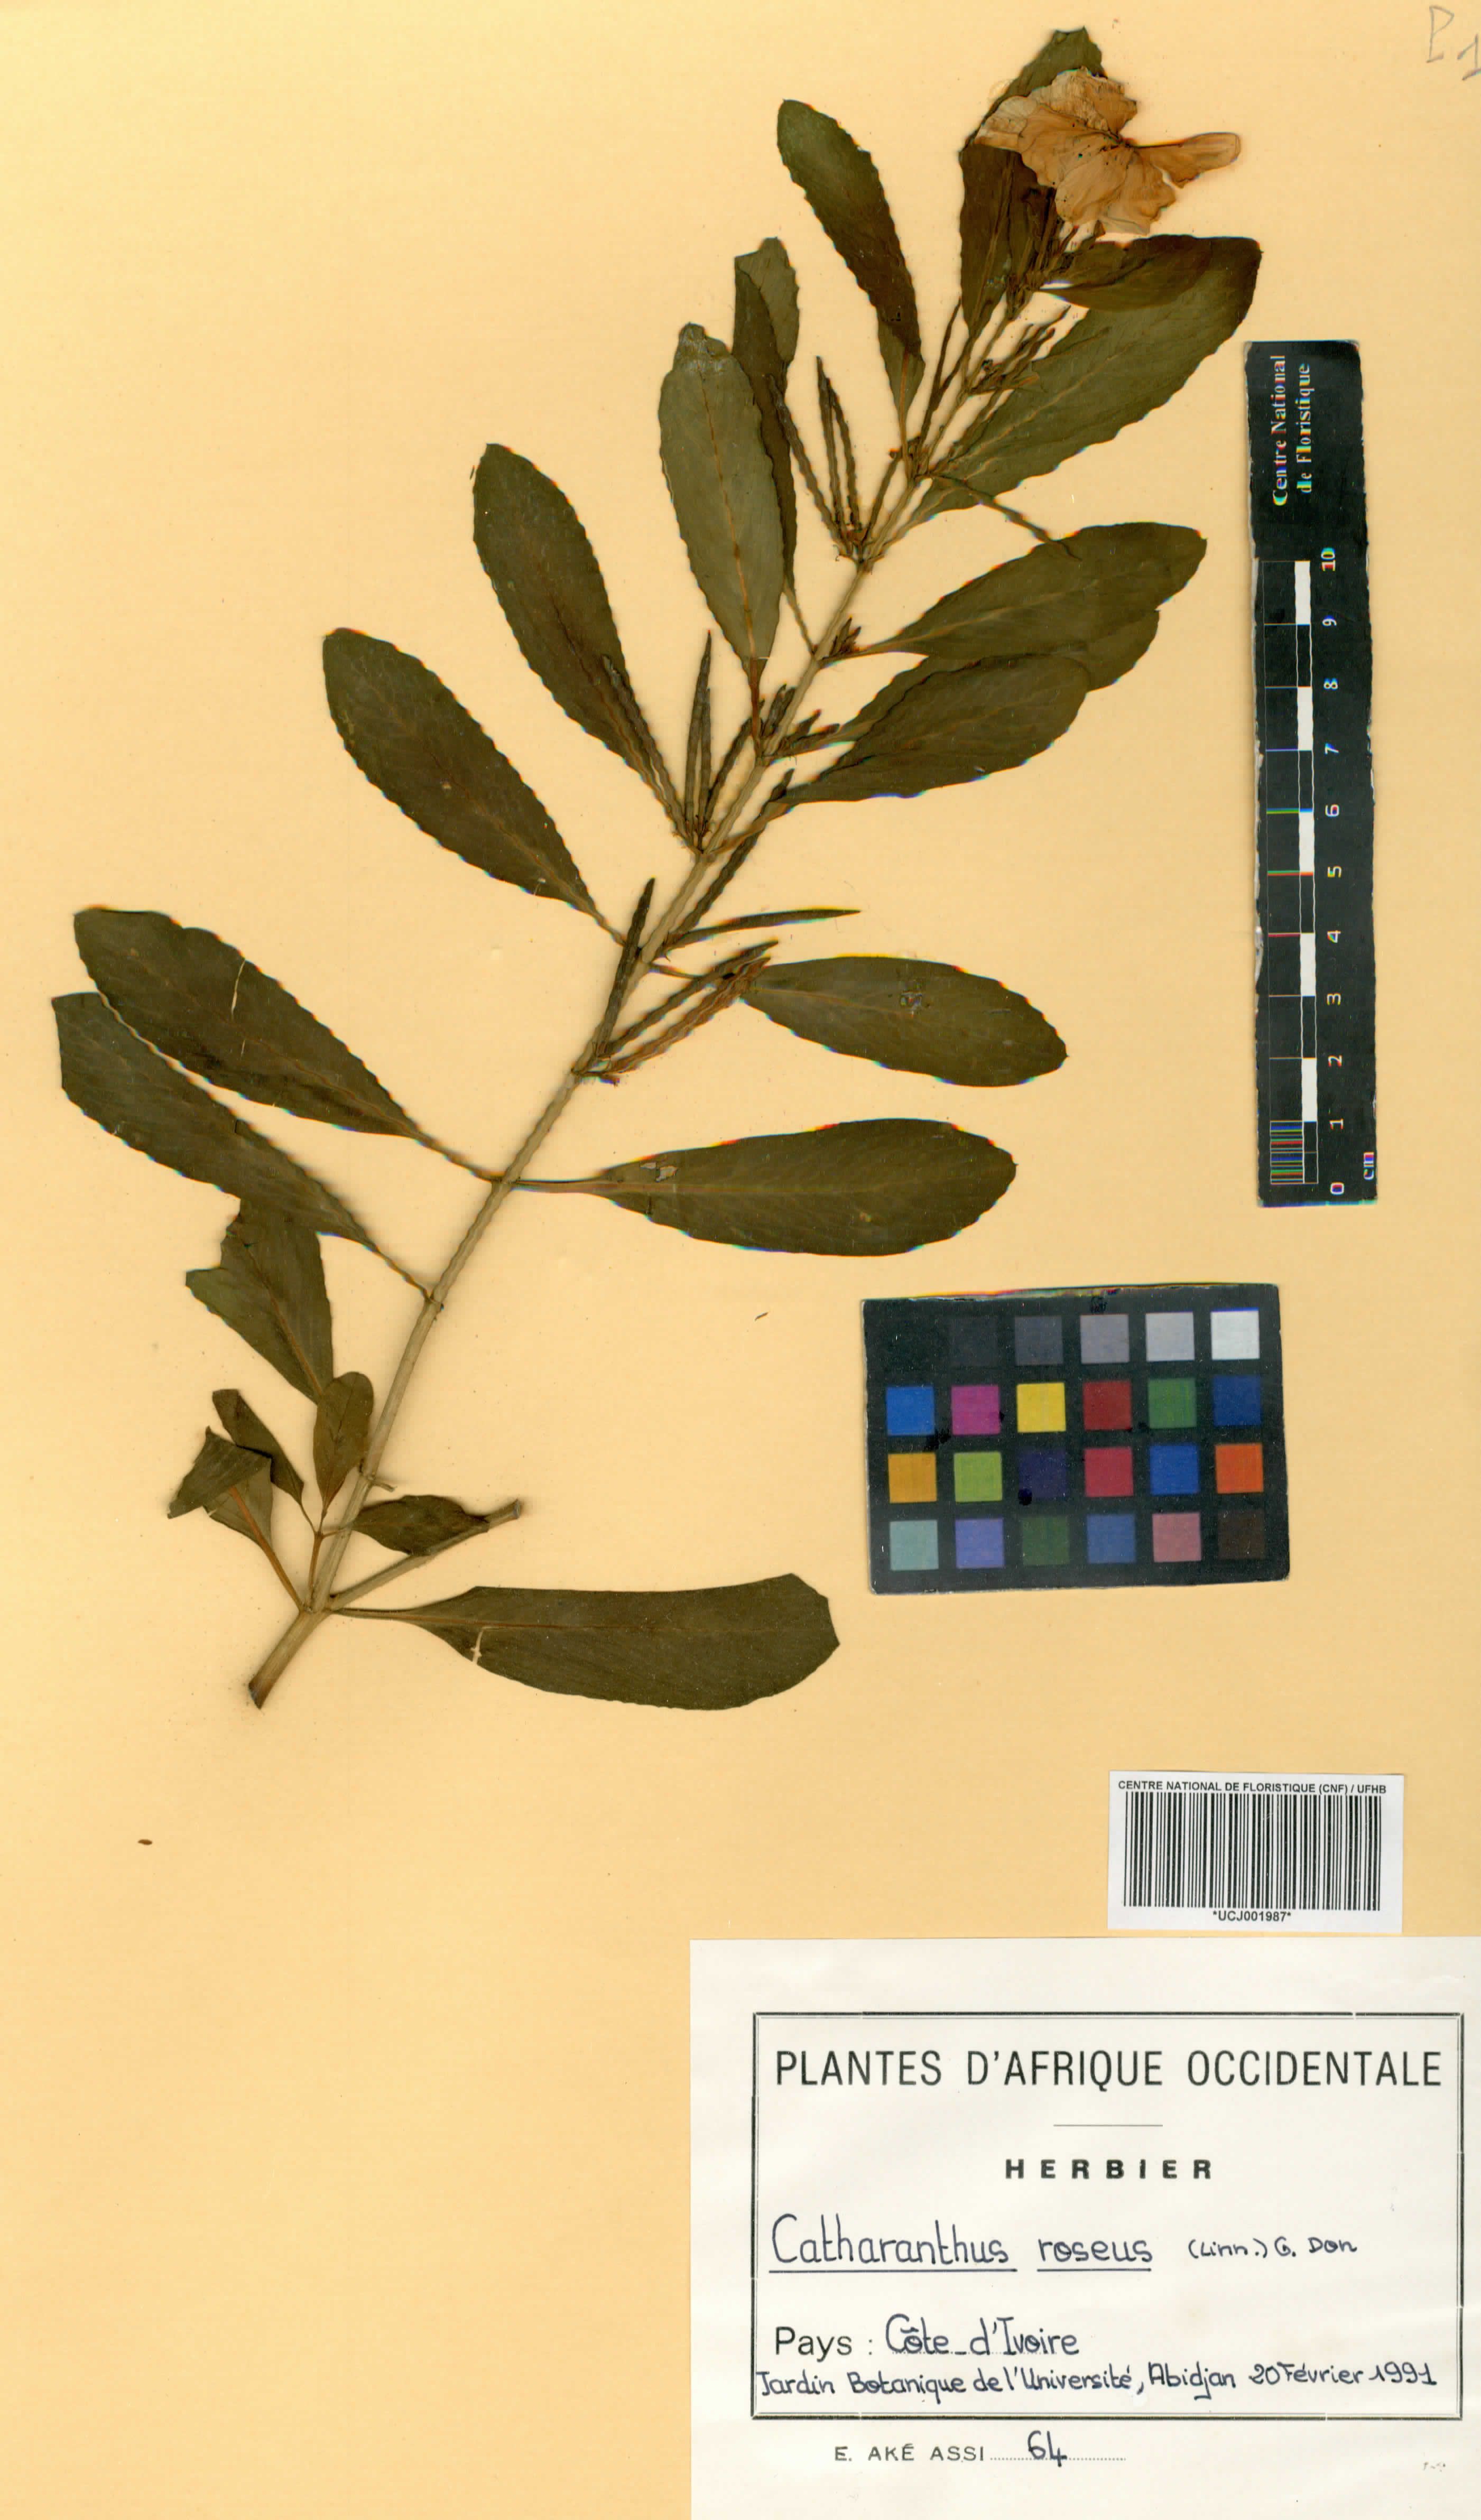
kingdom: Plantae
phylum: Tracheophyta
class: Magnoliopsida
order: Gentianales
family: Apocynaceae
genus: Catharanthus
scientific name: Catharanthus roseus
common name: Madagascar periwinkle
